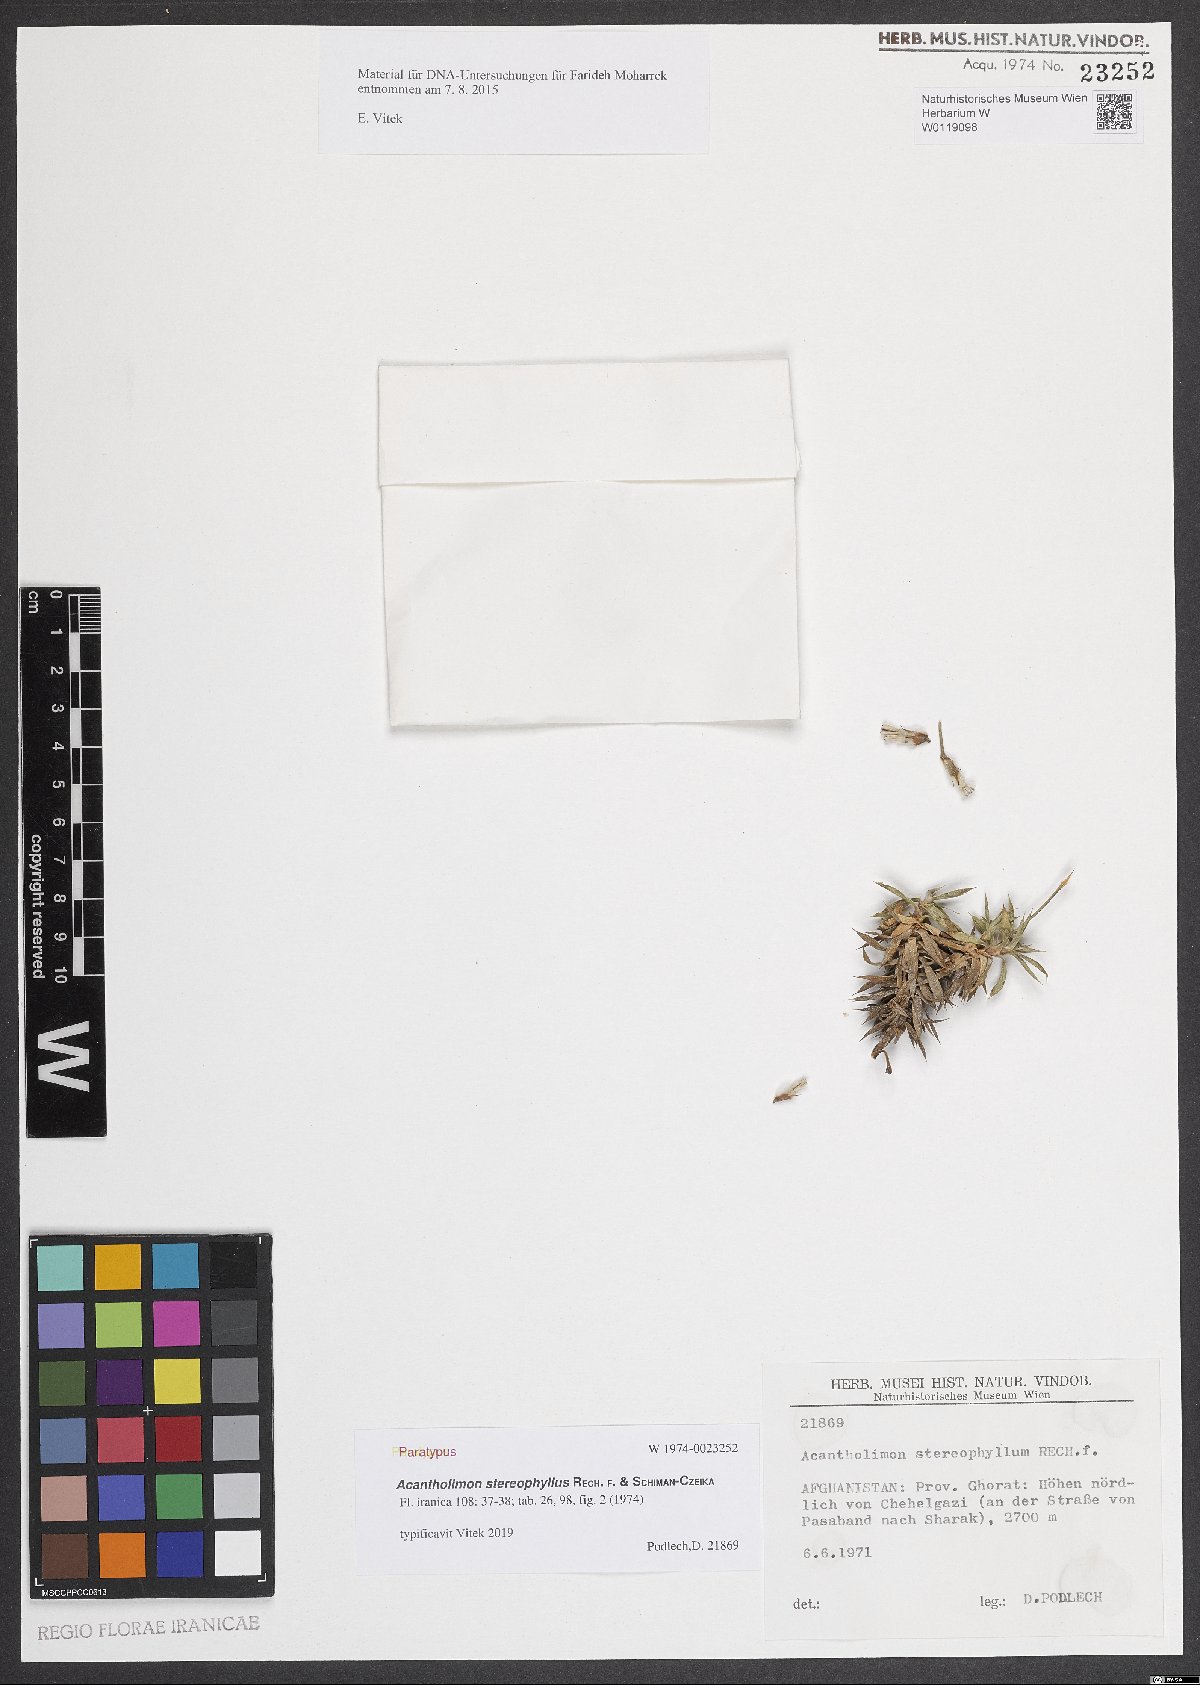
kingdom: Plantae
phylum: Tracheophyta
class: Magnoliopsida
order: Caryophyllales
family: Plumbaginaceae
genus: Acantholimon
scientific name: Acantholimon stereophyllum
